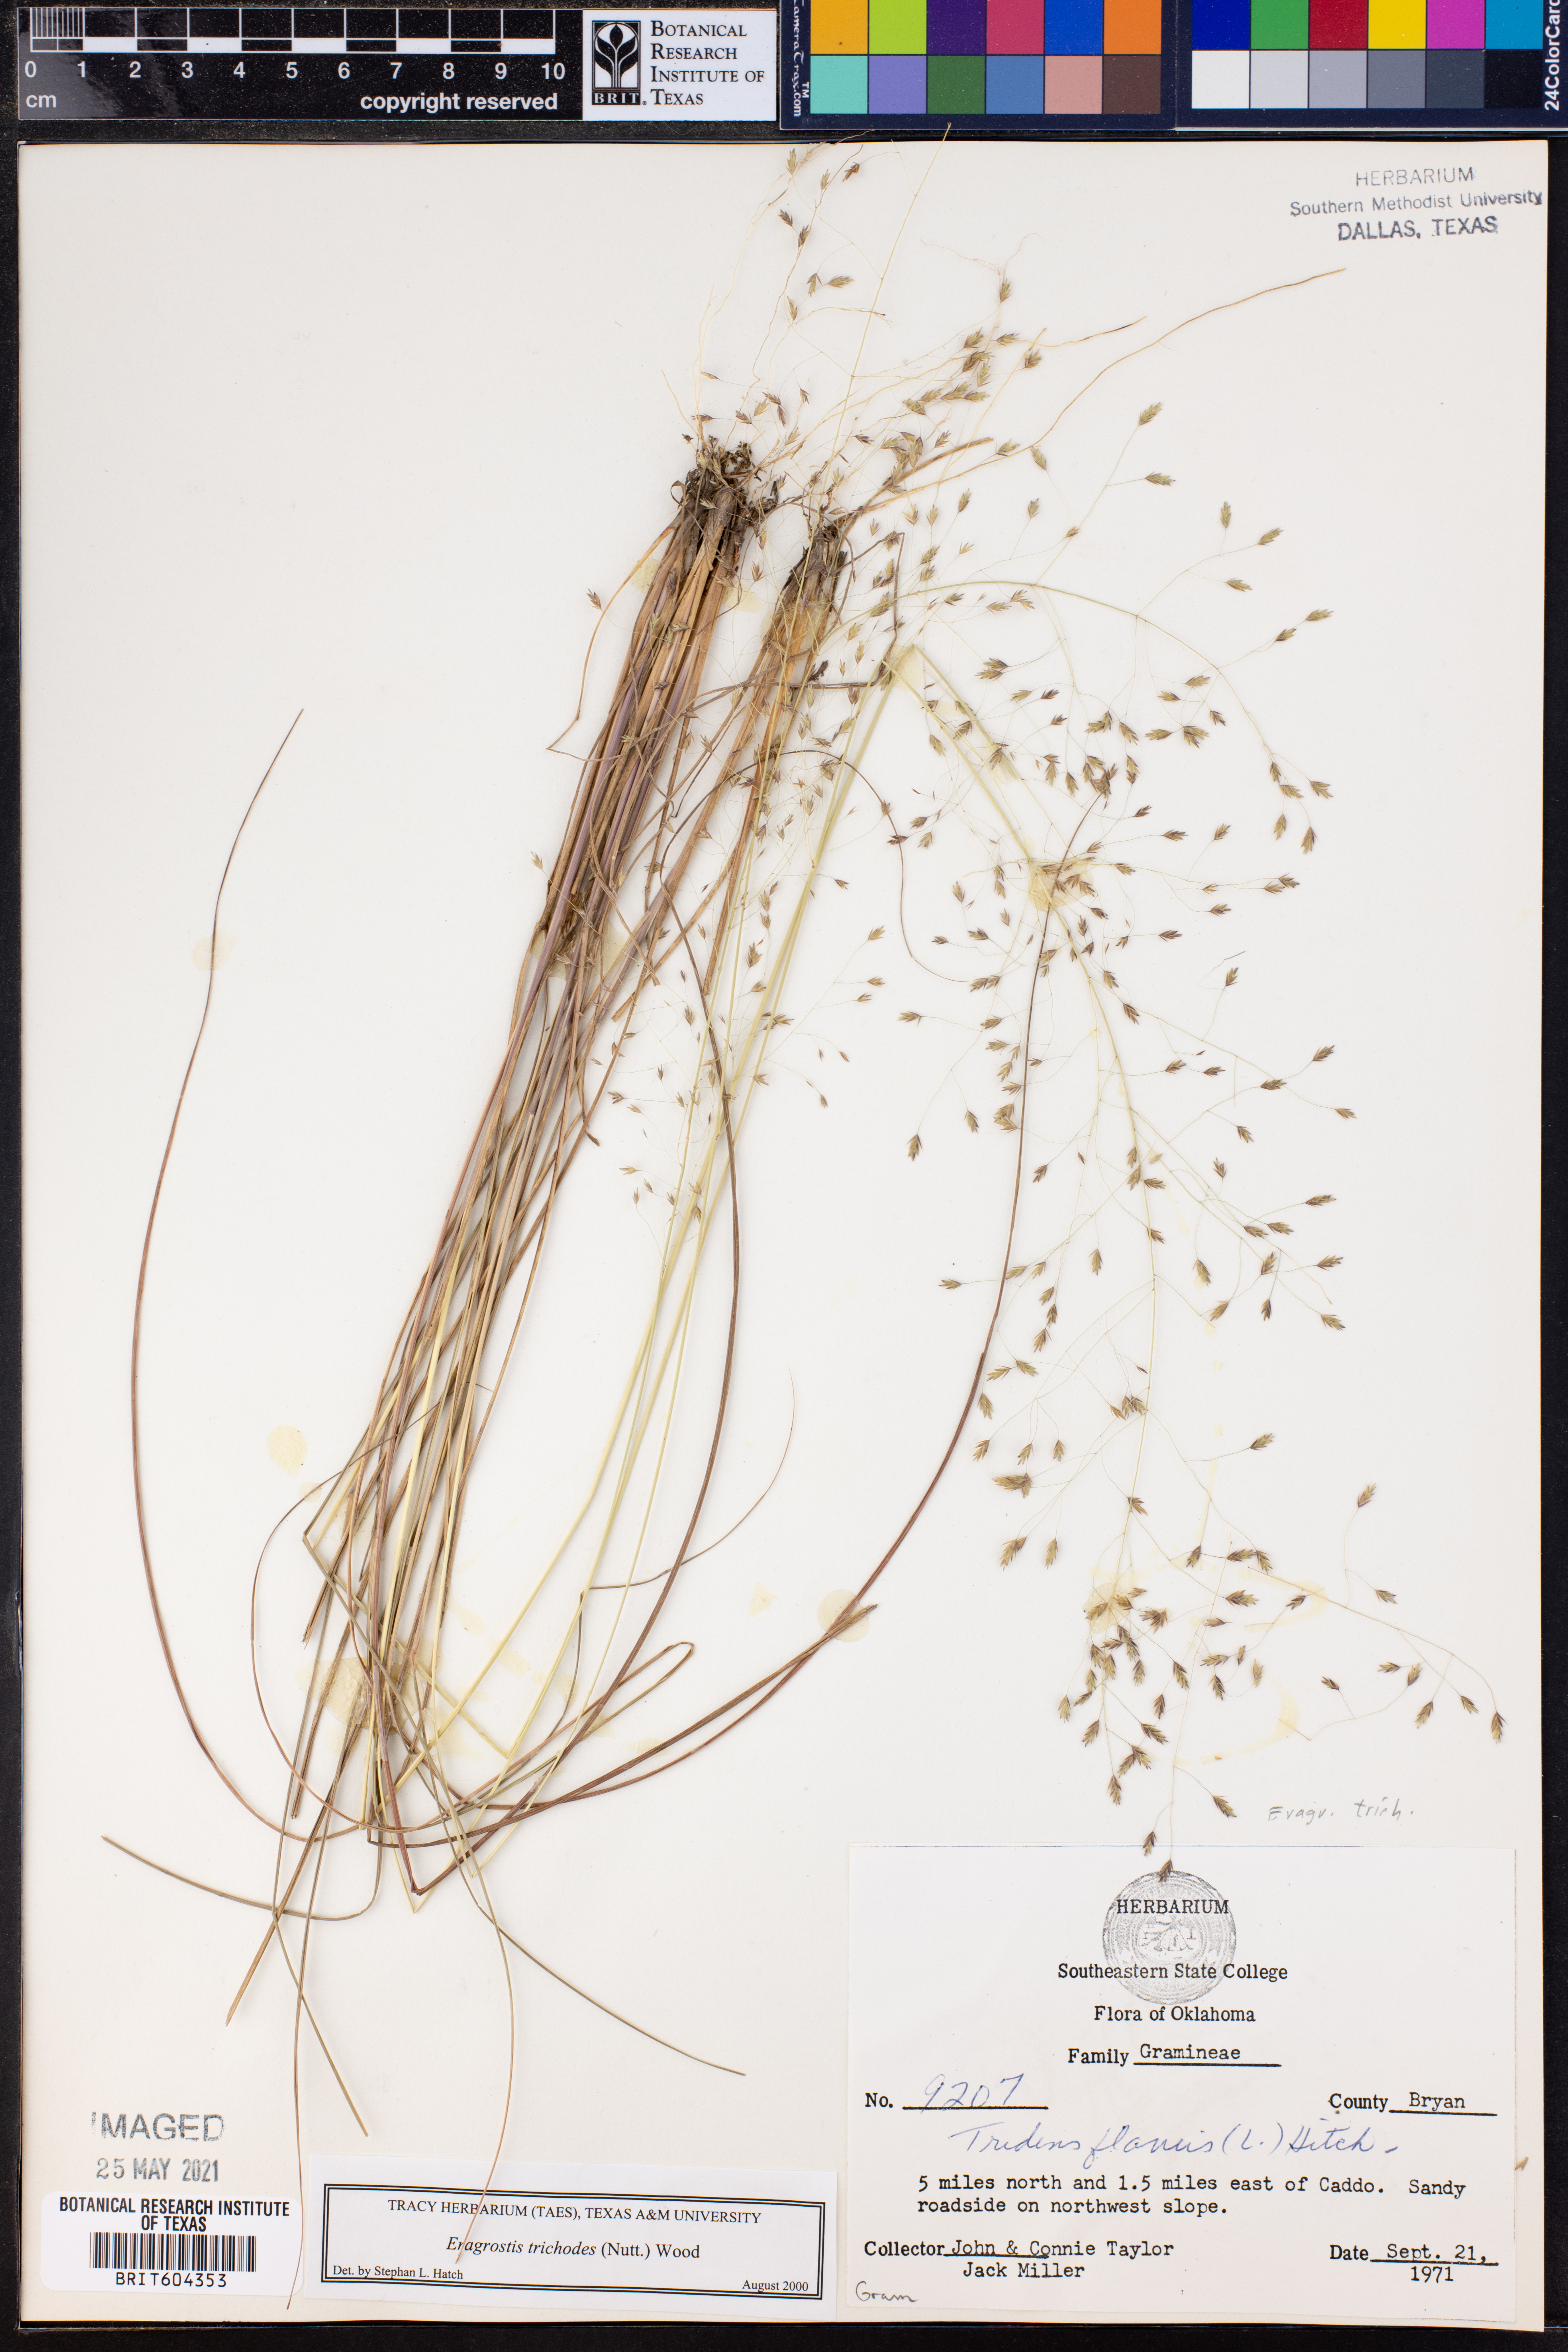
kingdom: Plantae
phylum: Tracheophyta
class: Liliopsida
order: Poales
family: Poaceae
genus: Eragrostis
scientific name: Eragrostis trichodes
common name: Sand love grass
